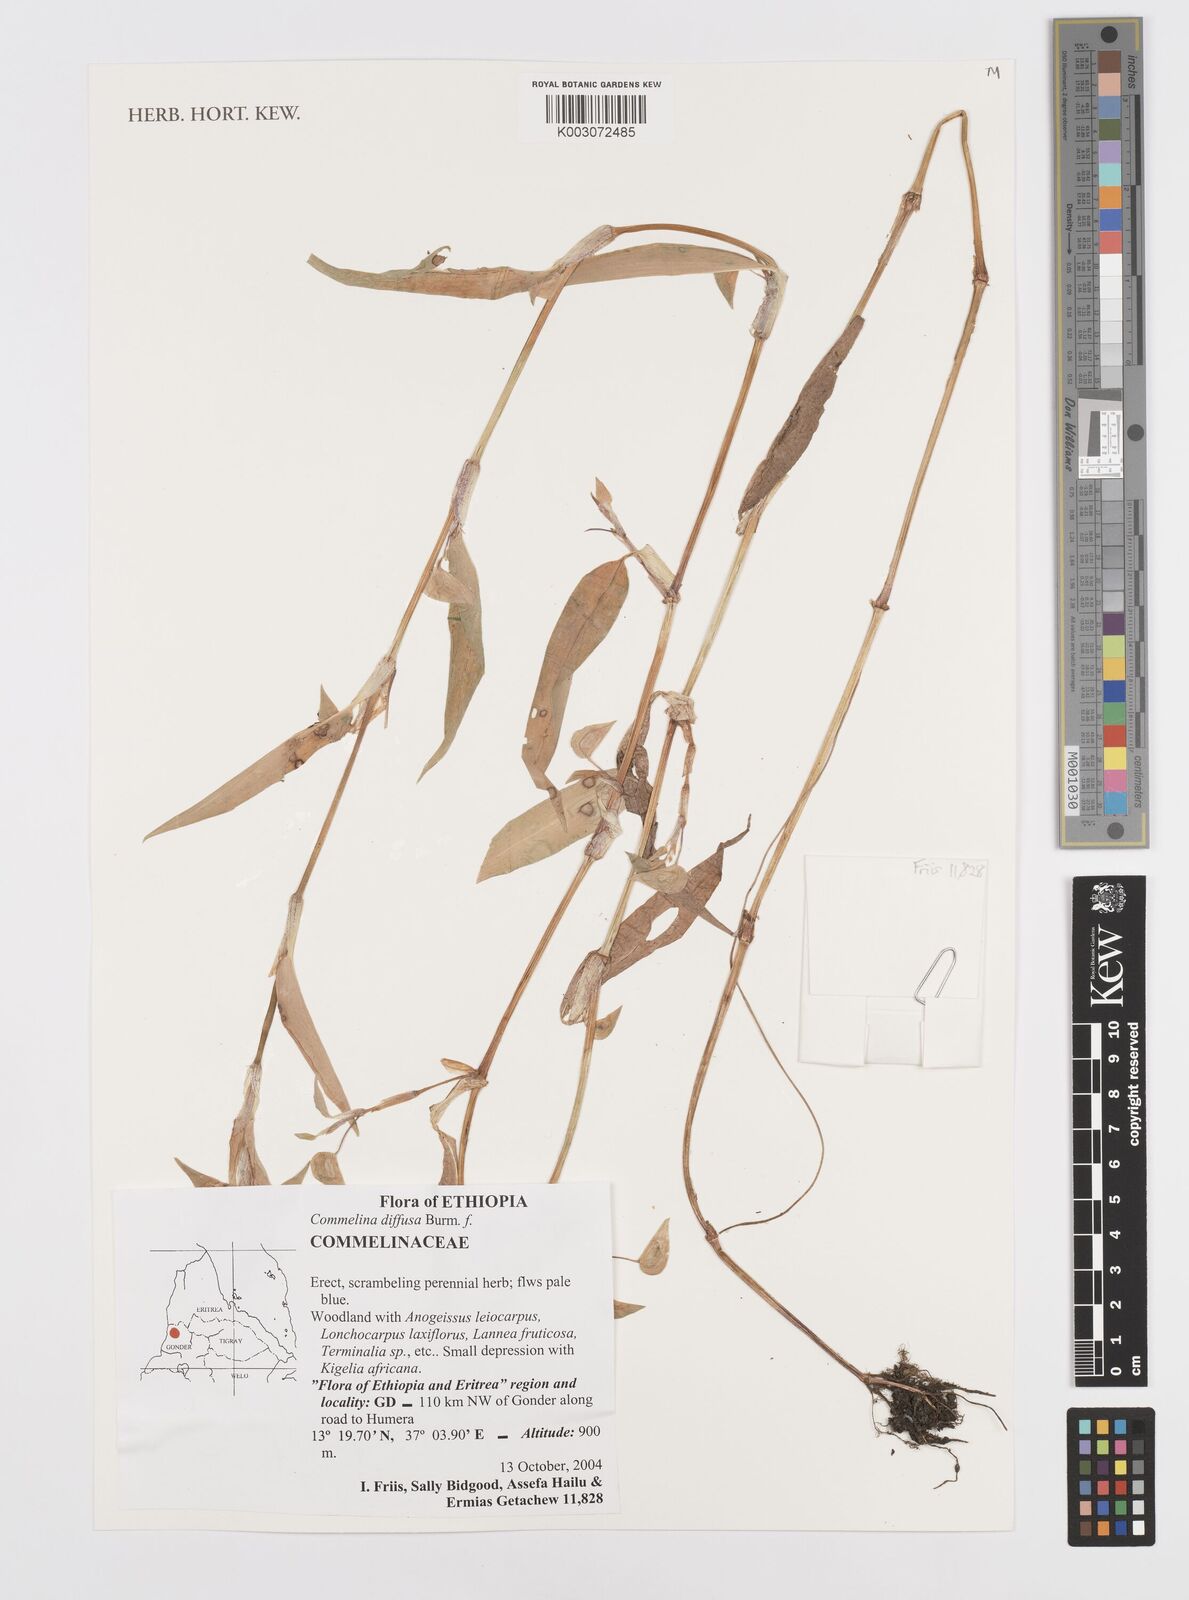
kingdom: Plantae
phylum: Tracheophyta
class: Liliopsida
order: Commelinales
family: Commelinaceae
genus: Commelina
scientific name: Commelina diffusa
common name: Climbing dayflower
